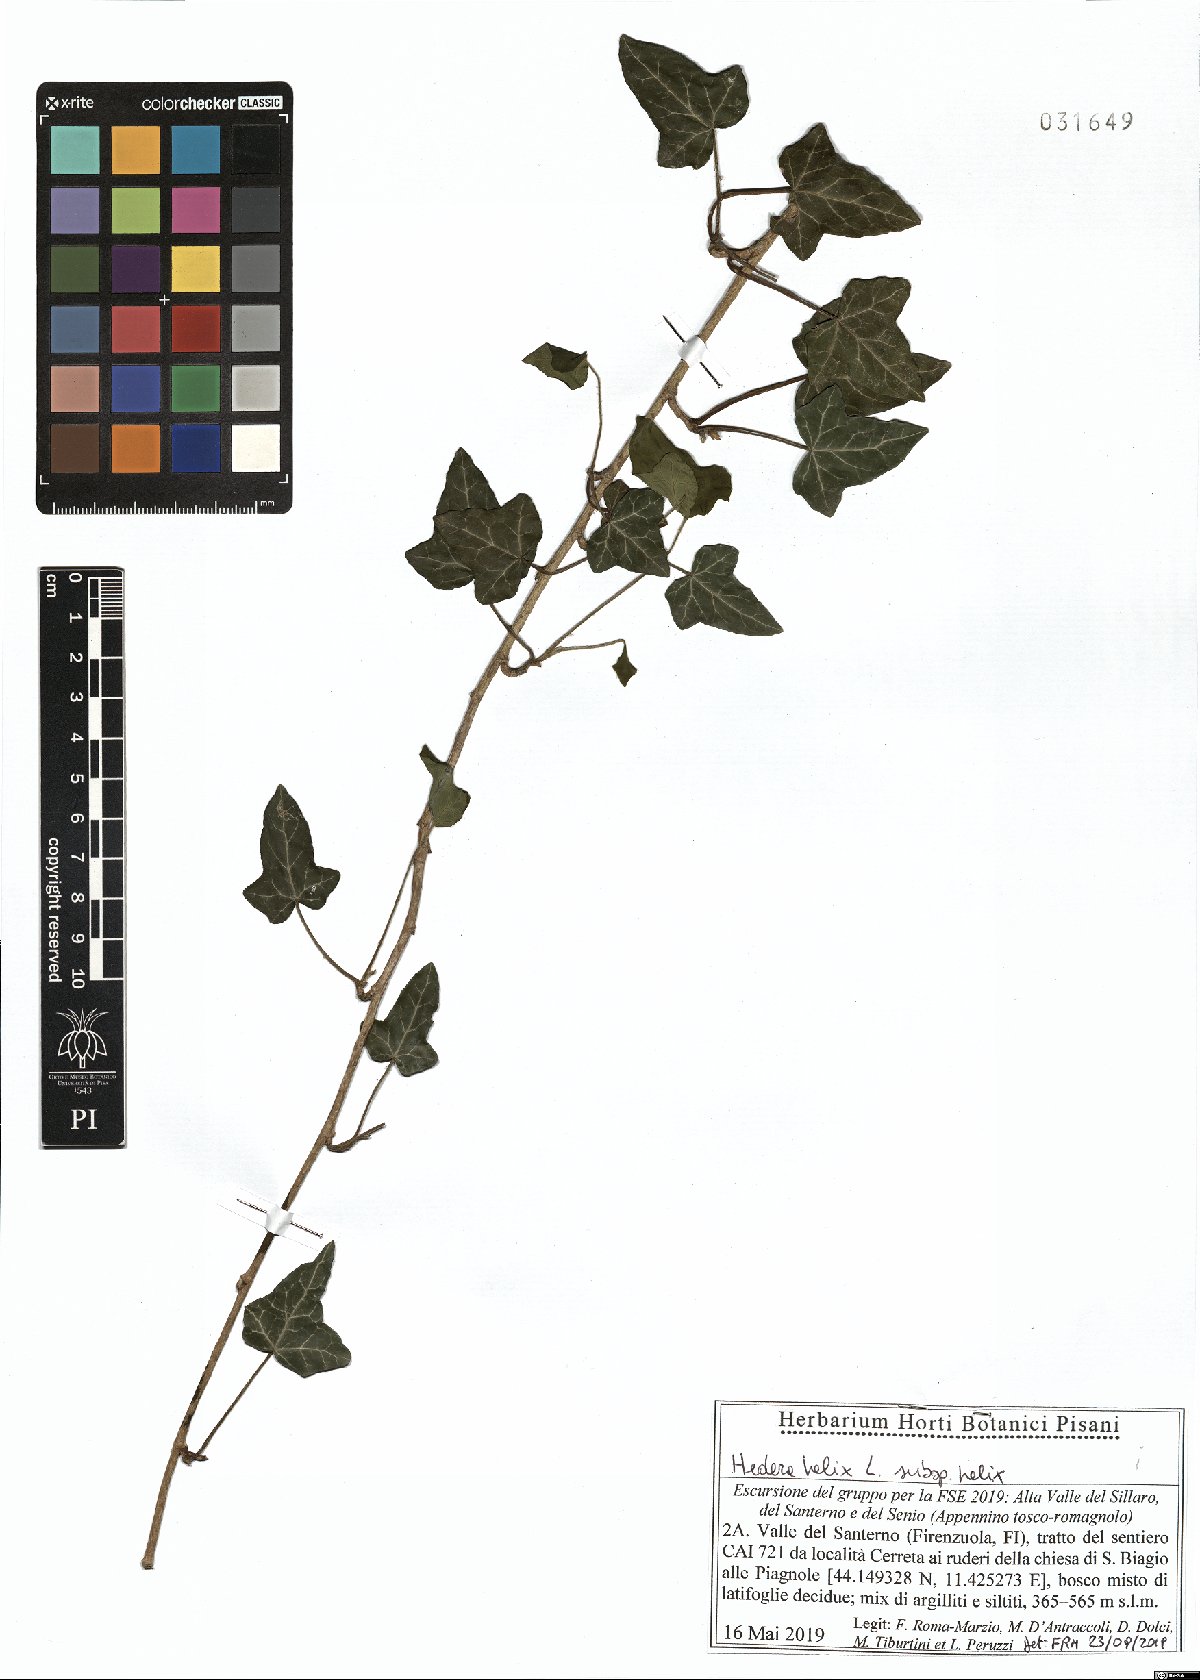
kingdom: Plantae
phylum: Tracheophyta
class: Magnoliopsida
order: Apiales
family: Araliaceae
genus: Hedera
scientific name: Hedera helix
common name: Ivy
